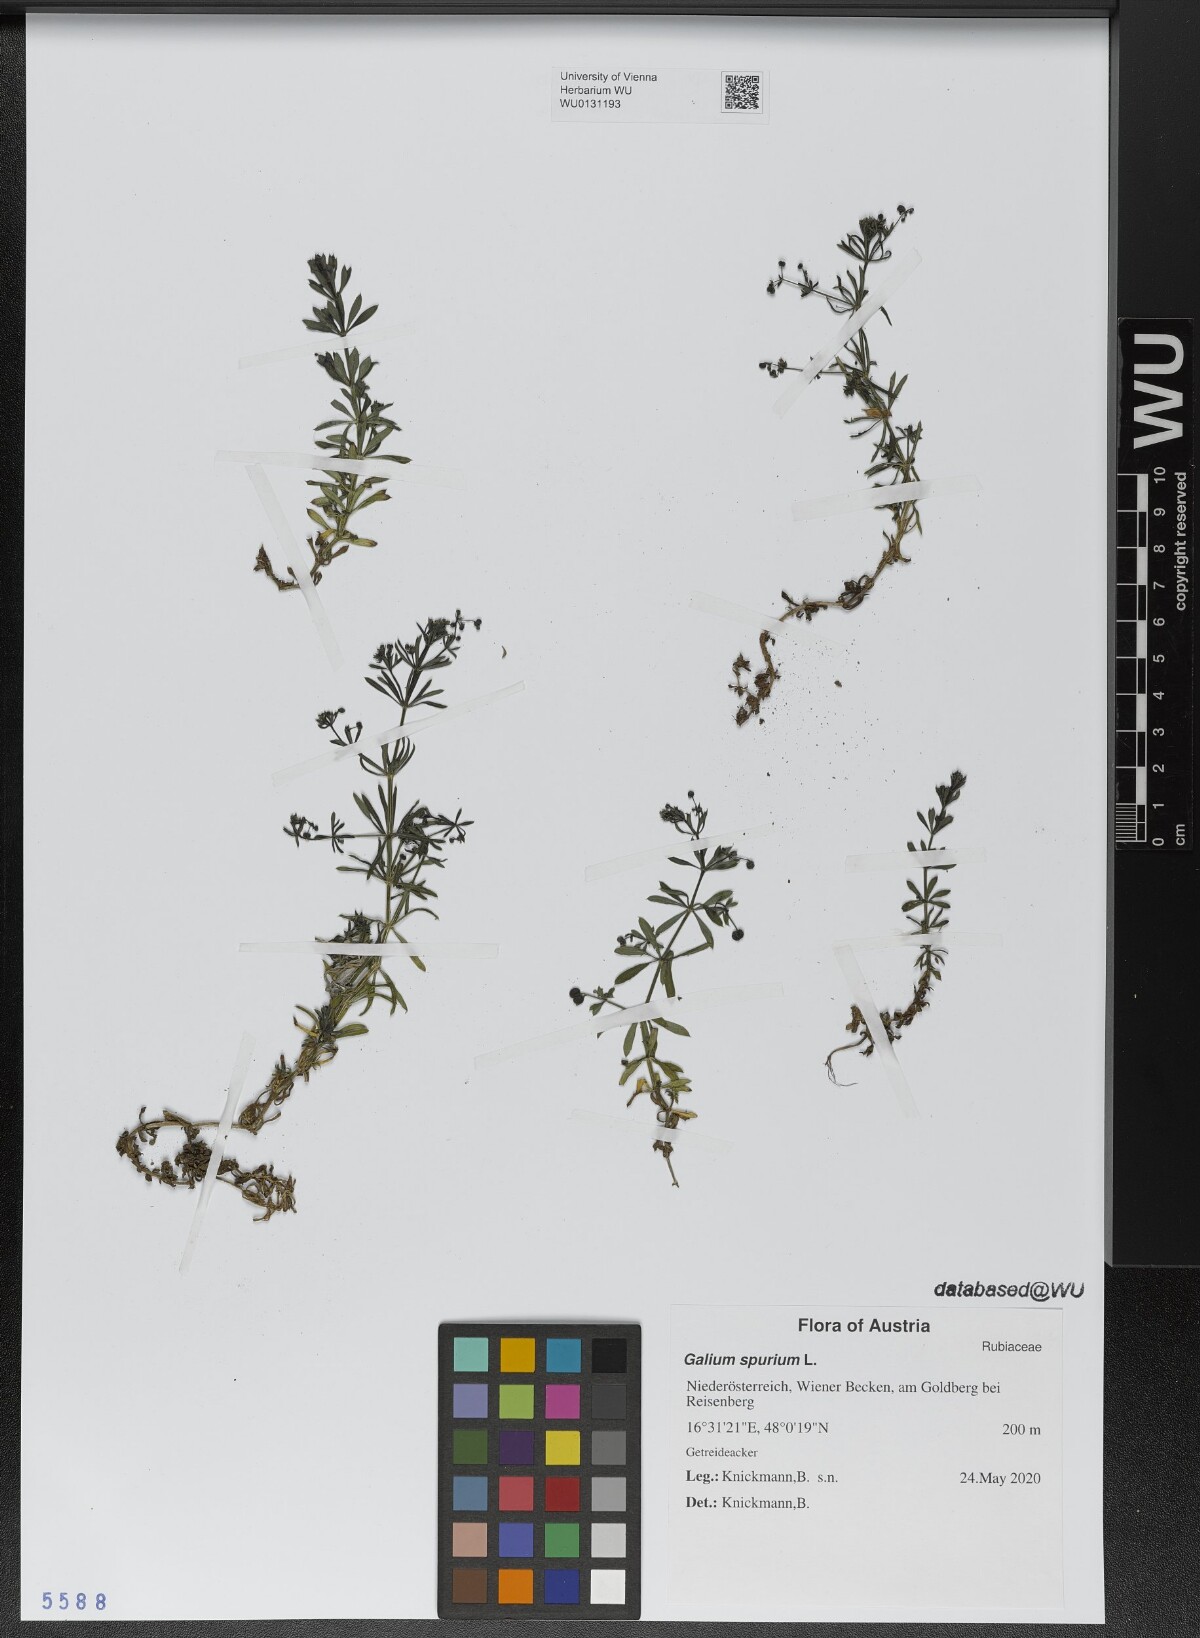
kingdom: Plantae
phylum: Tracheophyta
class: Magnoliopsida
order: Gentianales
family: Rubiaceae
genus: Galium
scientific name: Galium spurium
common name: False cleavers
